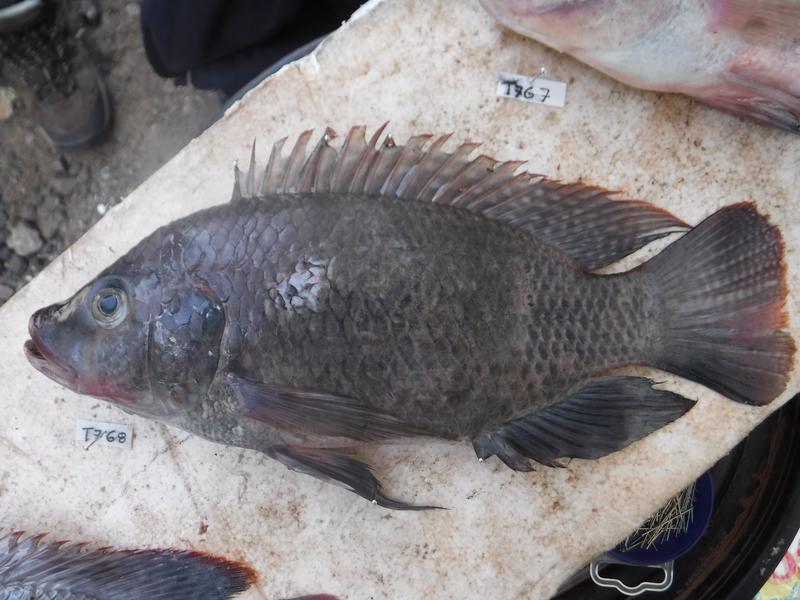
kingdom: Animalia
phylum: Chordata
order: Perciformes
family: Cichlidae
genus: Oreochromis
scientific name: Oreochromis urolepis
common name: Wami tilapia
